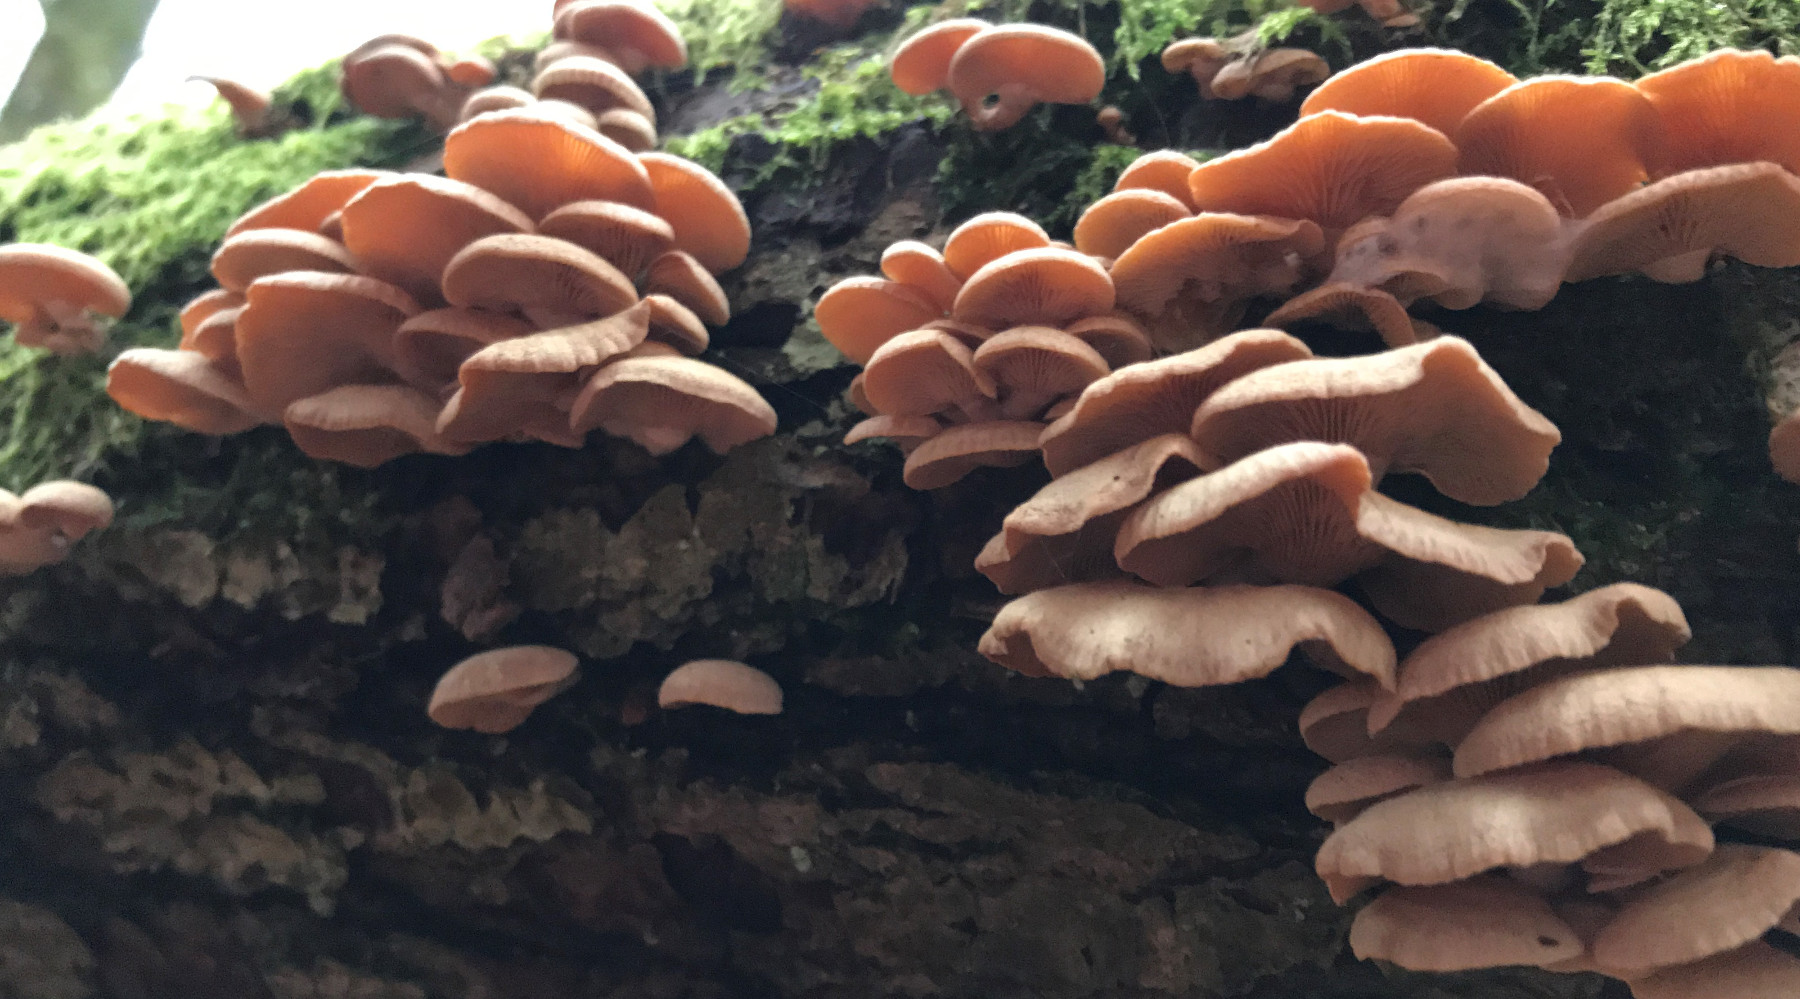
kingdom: Fungi
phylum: Basidiomycota
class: Agaricomycetes
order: Agaricales
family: Mycenaceae
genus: Panellus
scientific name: Panellus stipticus
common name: kliddet epaulethat
